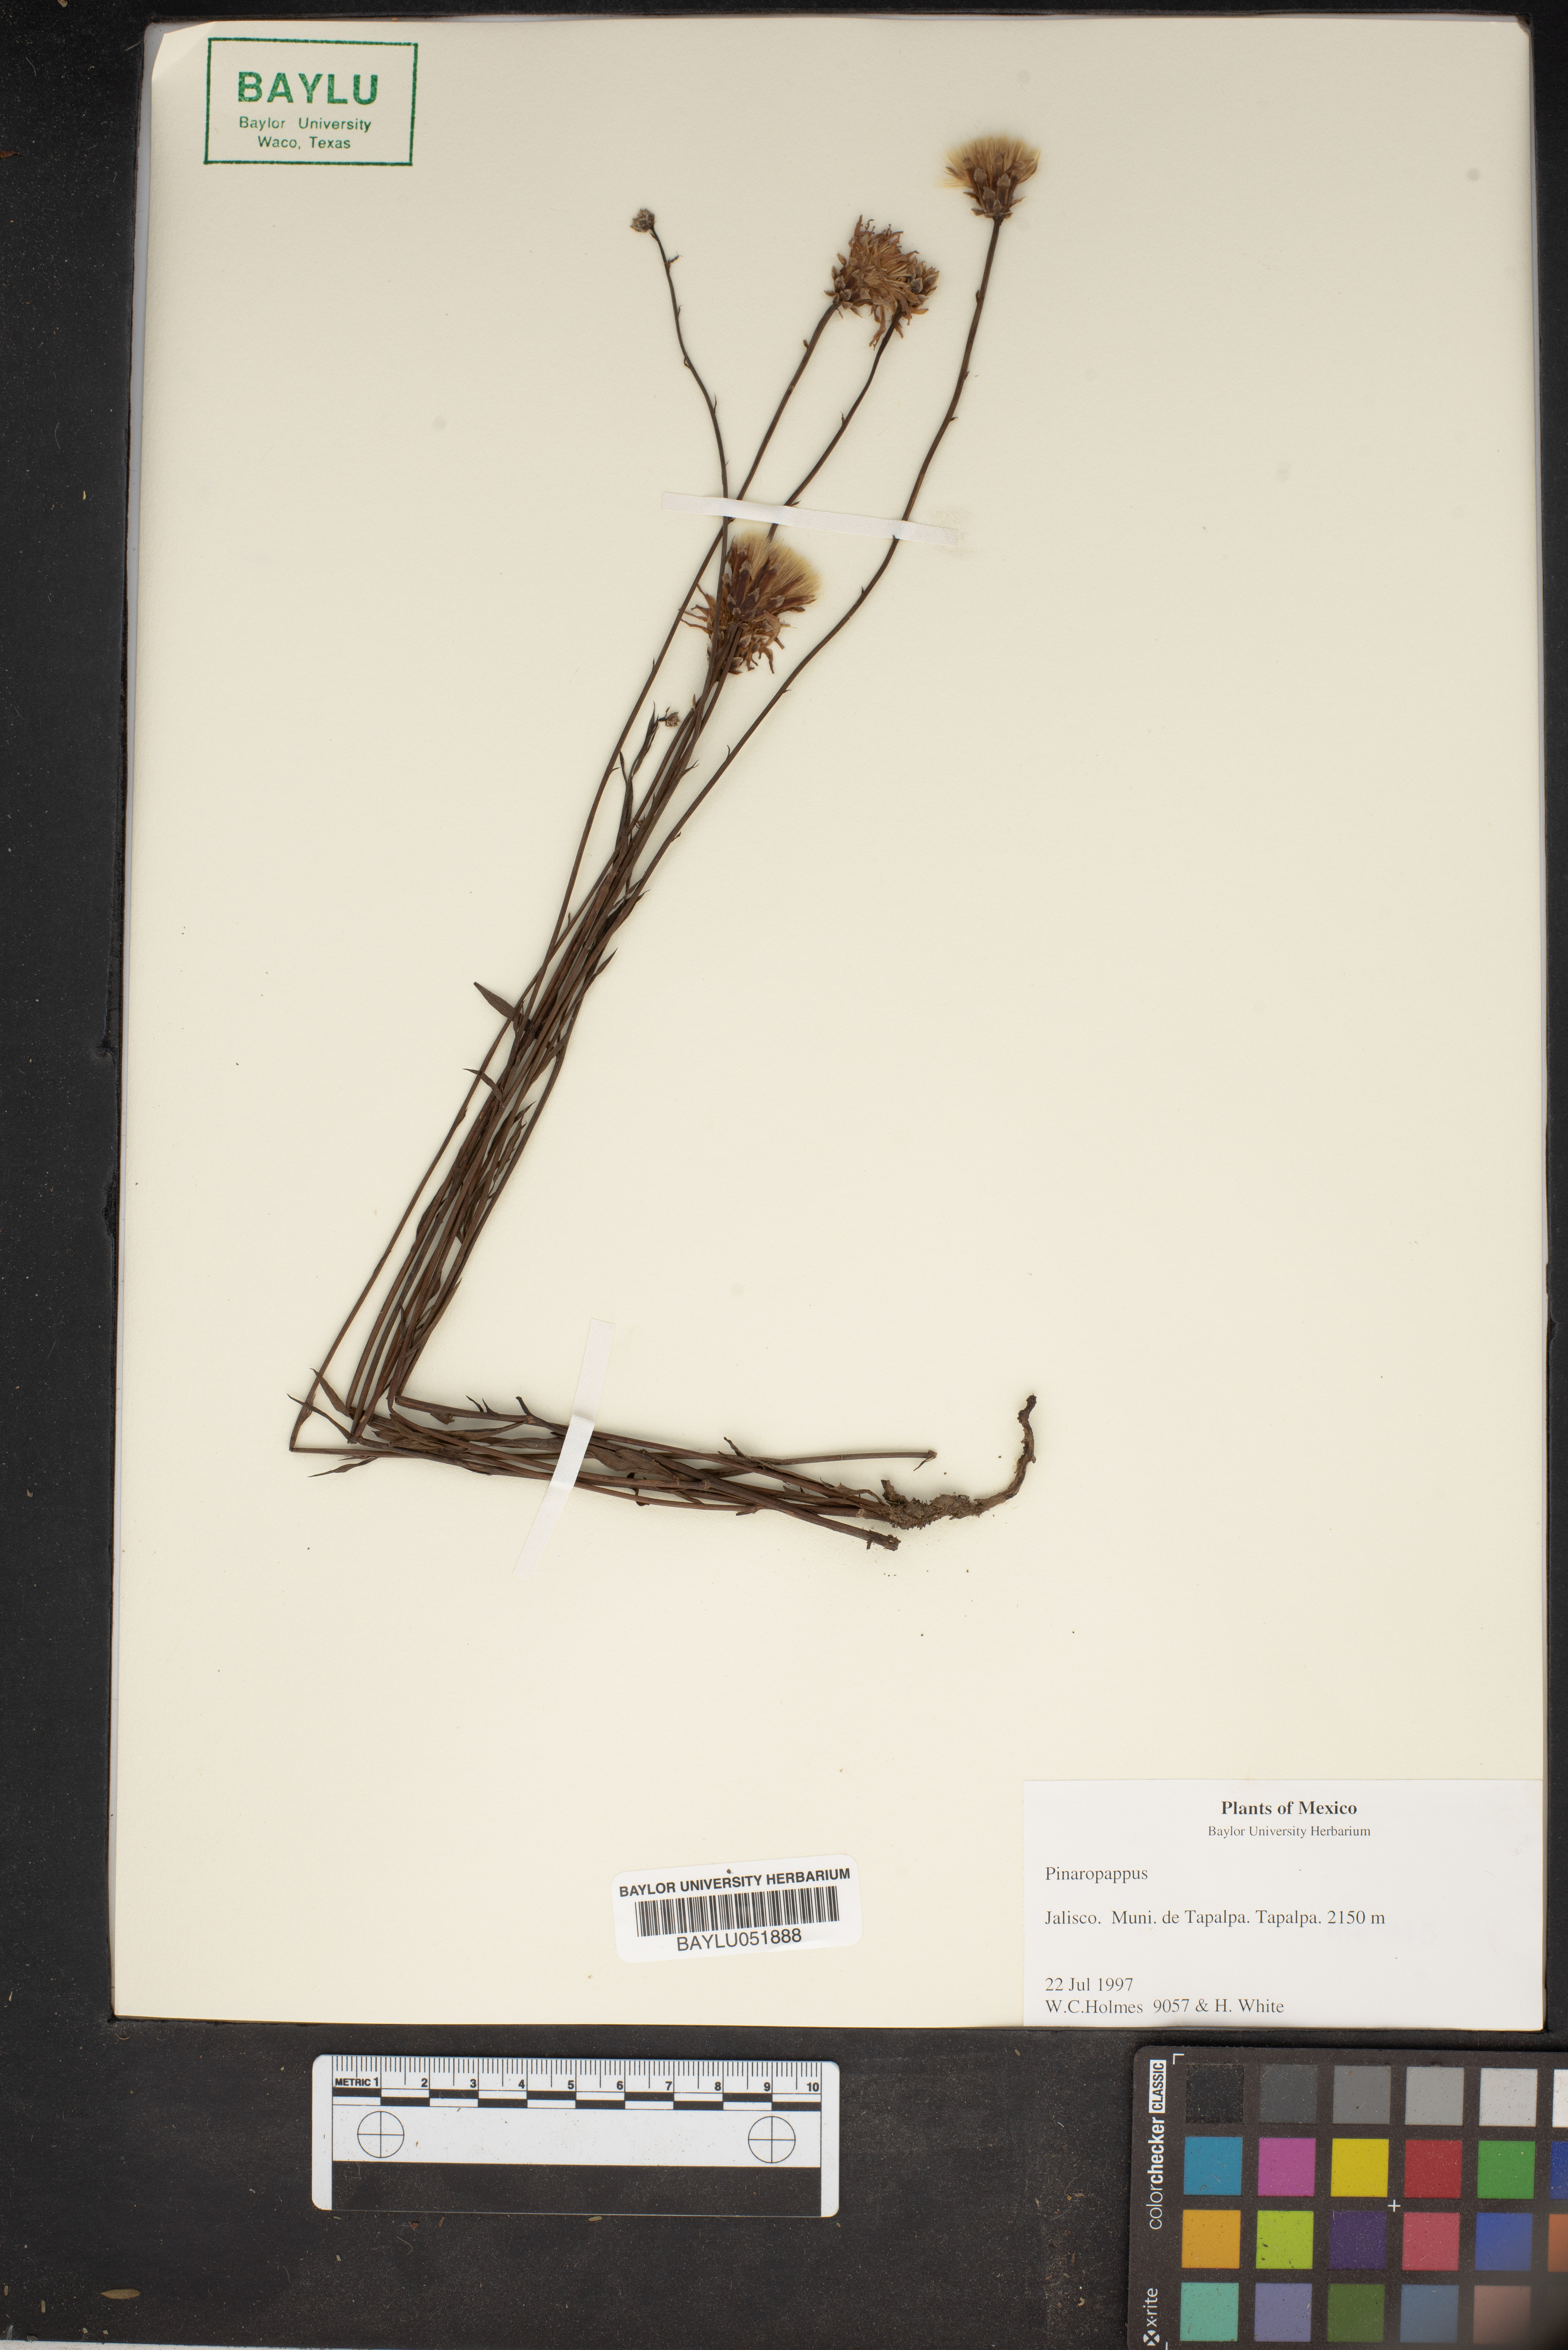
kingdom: Plantae
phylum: Tracheophyta
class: Magnoliopsida
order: Asterales
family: Asteraceae
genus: Pinaropappus
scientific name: Pinaropappus
